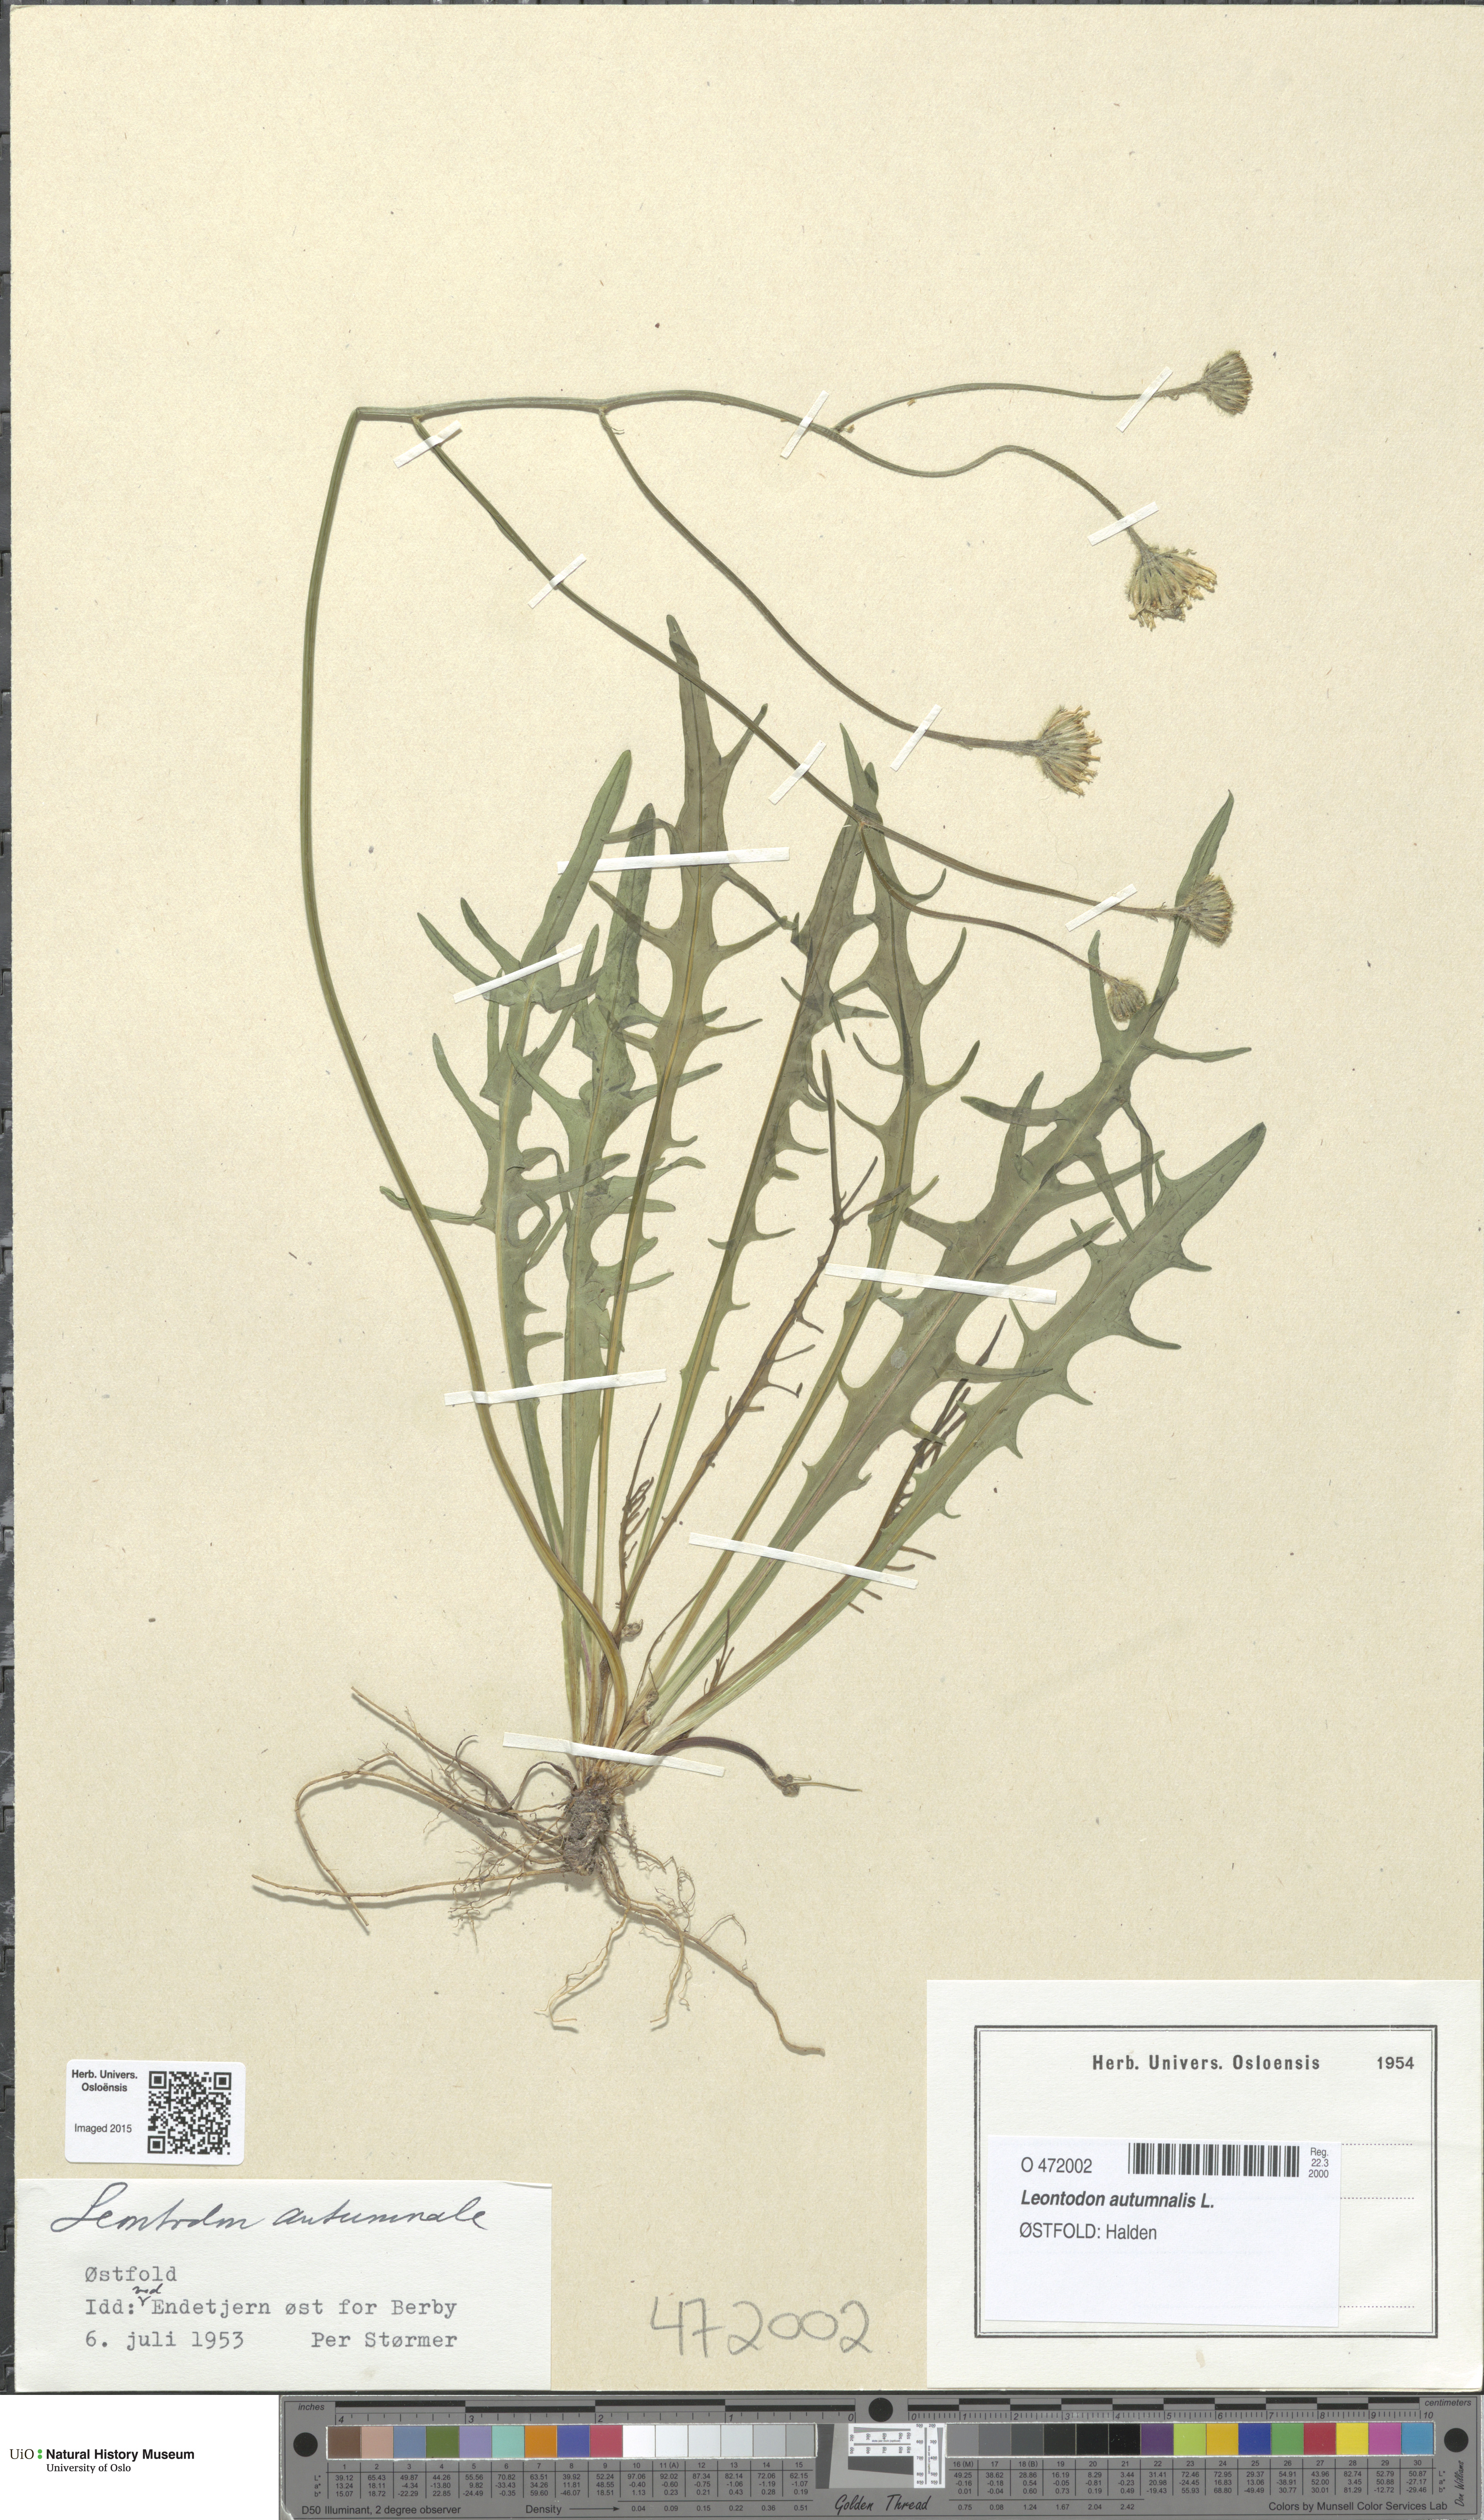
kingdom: Plantae
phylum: Tracheophyta
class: Magnoliopsida
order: Asterales
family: Asteraceae
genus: Scorzoneroides
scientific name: Scorzoneroides autumnalis
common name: Autumn hawkbit
